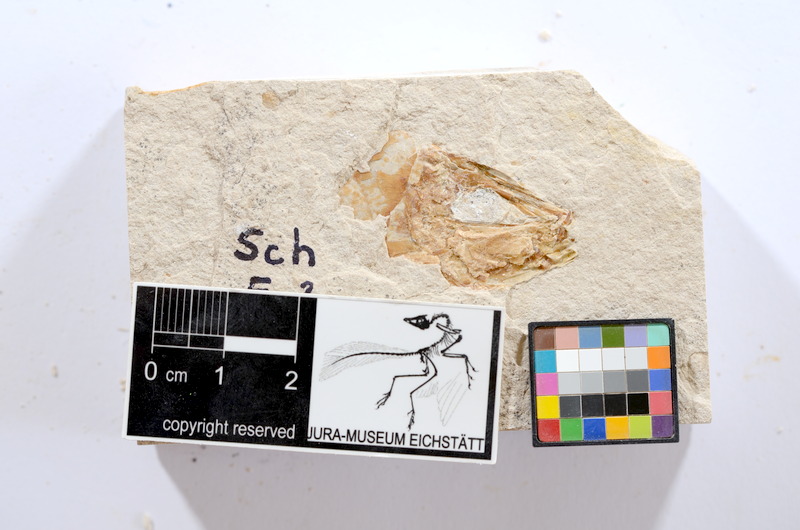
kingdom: Animalia
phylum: Chordata
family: Ascalaboidae
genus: Tharsis
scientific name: Tharsis dubius
